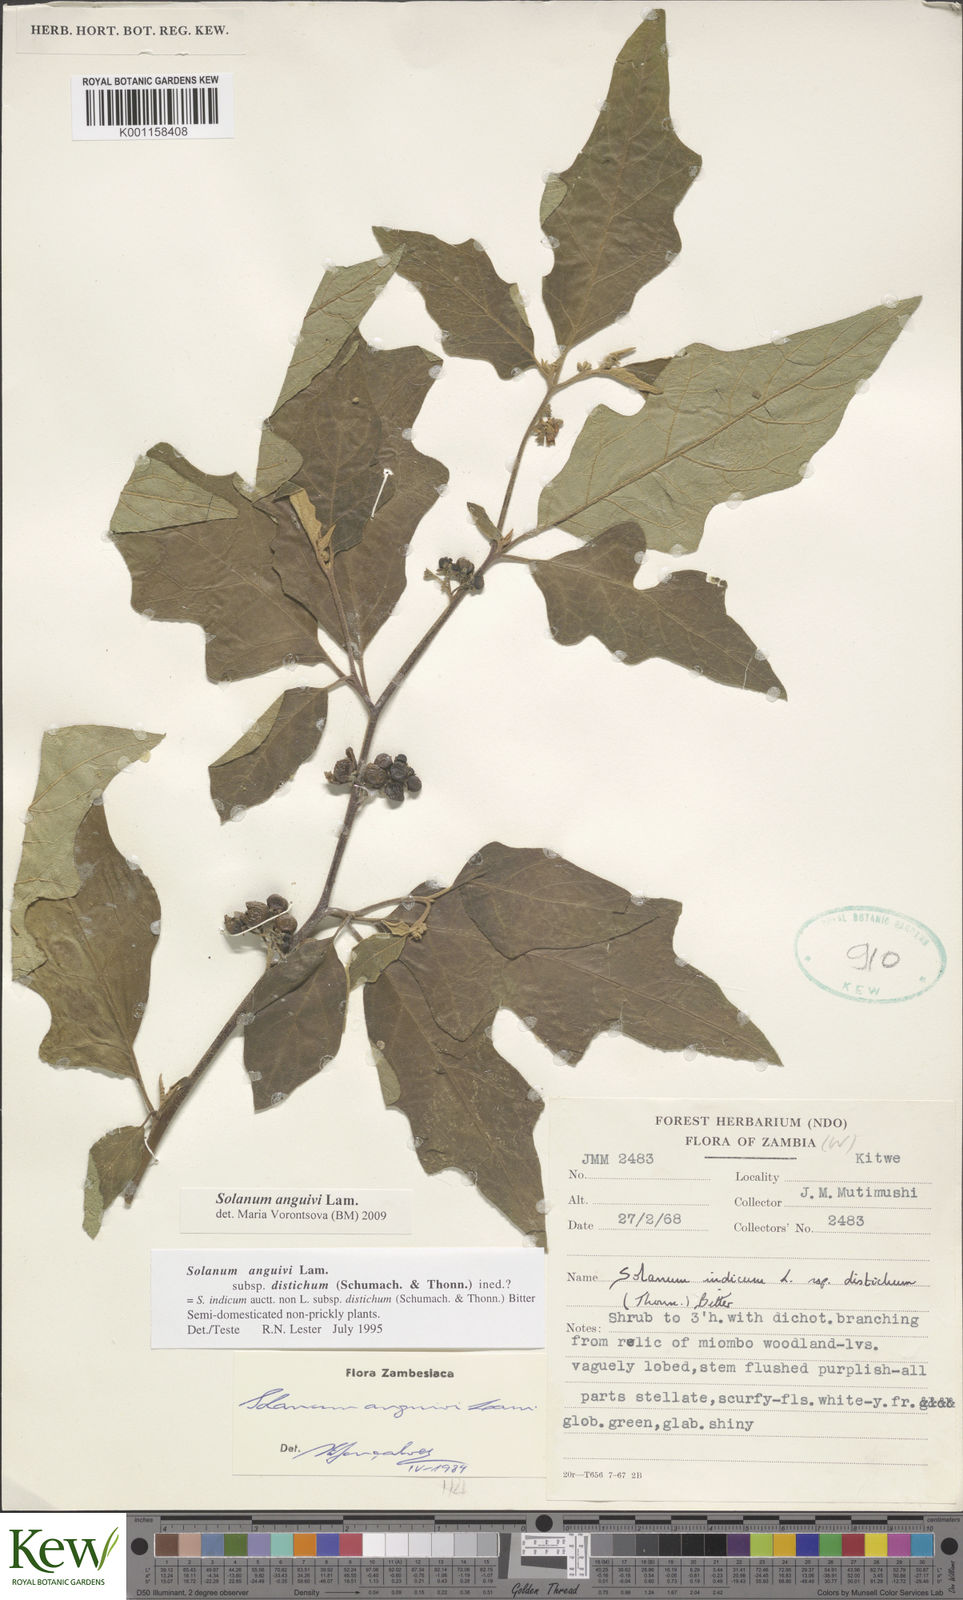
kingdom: Plantae
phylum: Tracheophyta
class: Magnoliopsida
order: Solanales
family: Solanaceae
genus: Solanum
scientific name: Solanum anguivi
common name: Forest bitterberry
